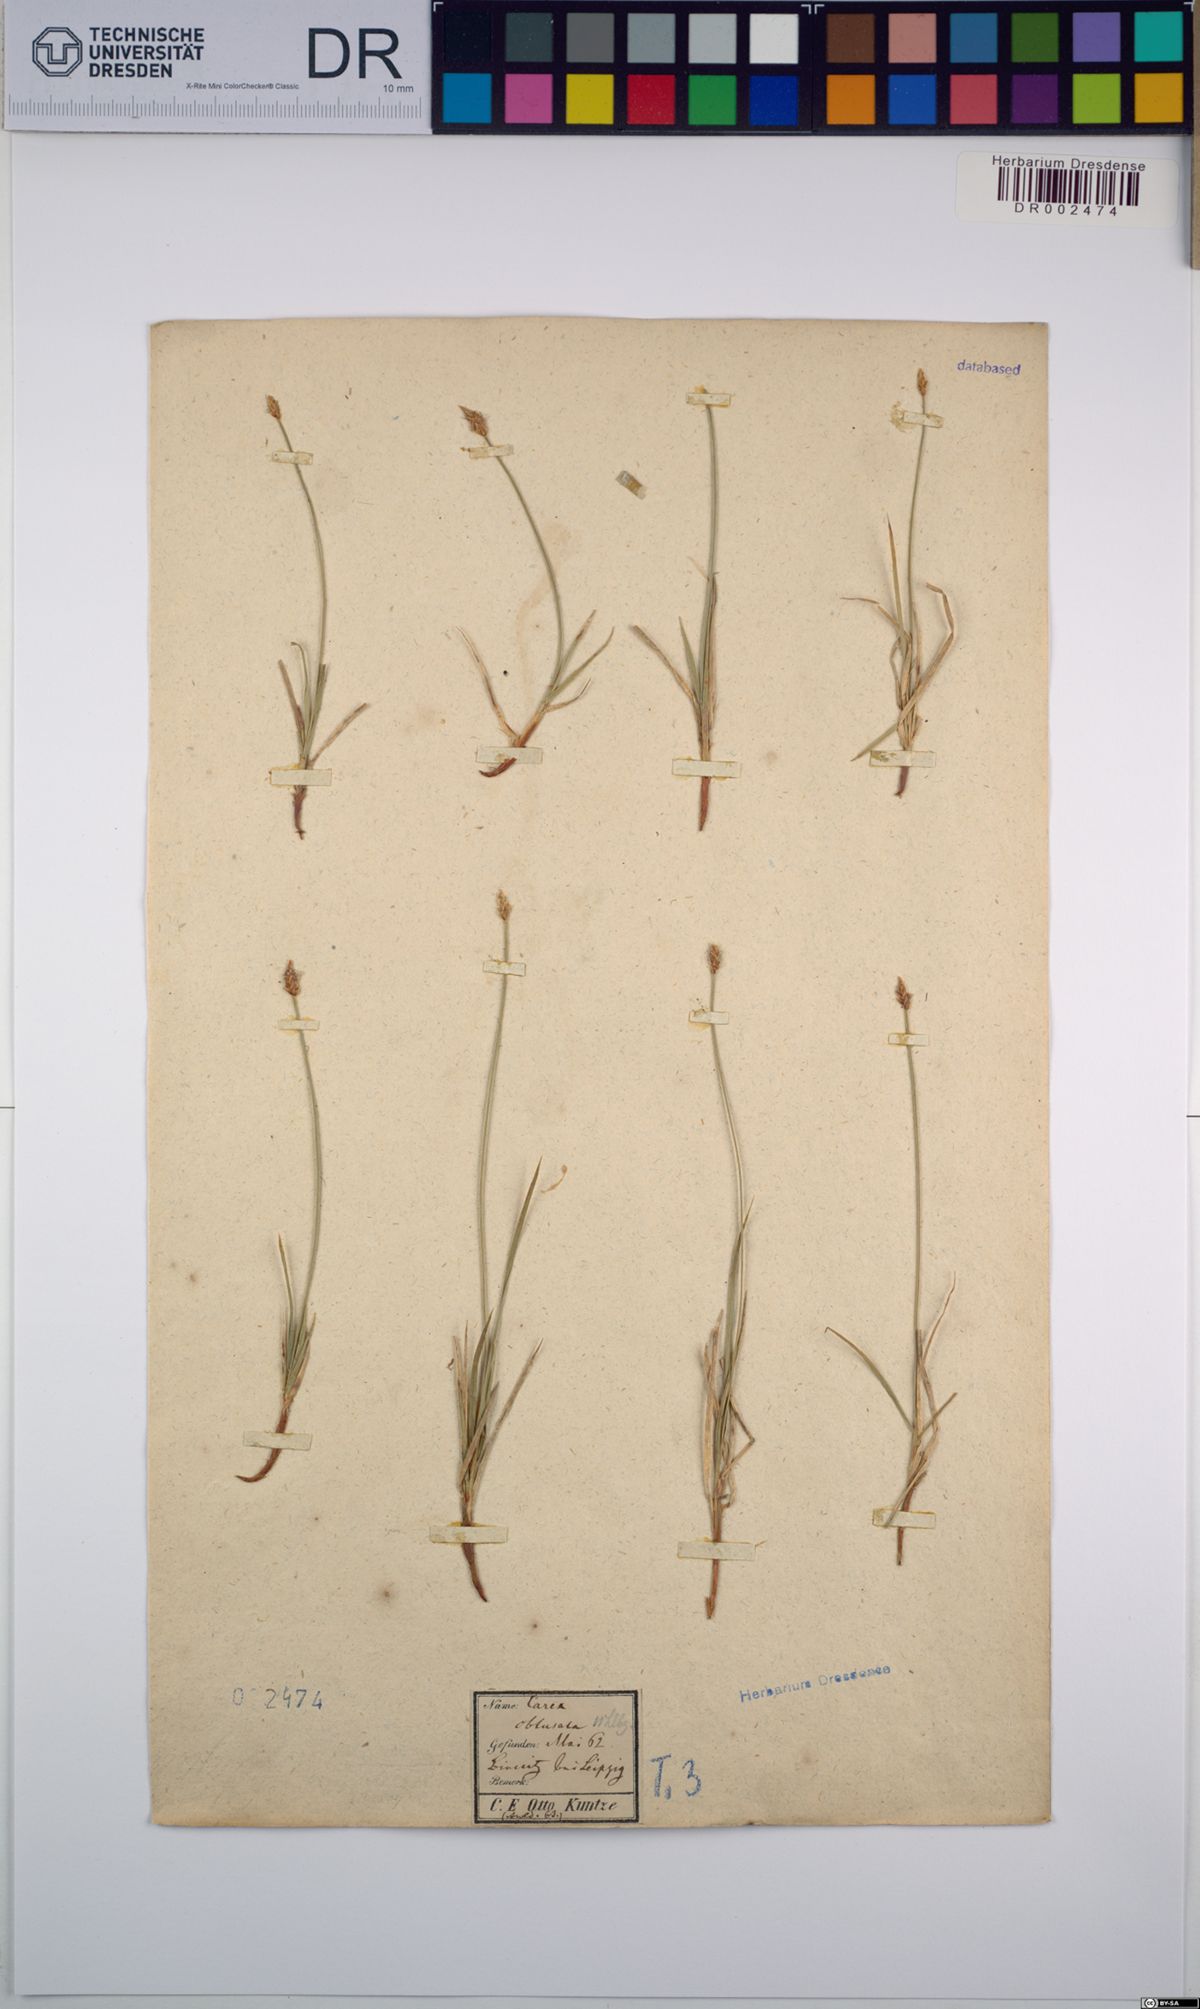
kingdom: Plantae
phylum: Tracheophyta
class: Liliopsida
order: Poales
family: Cyperaceae
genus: Carex
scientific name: Carex obtusata
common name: Blunt sedge
